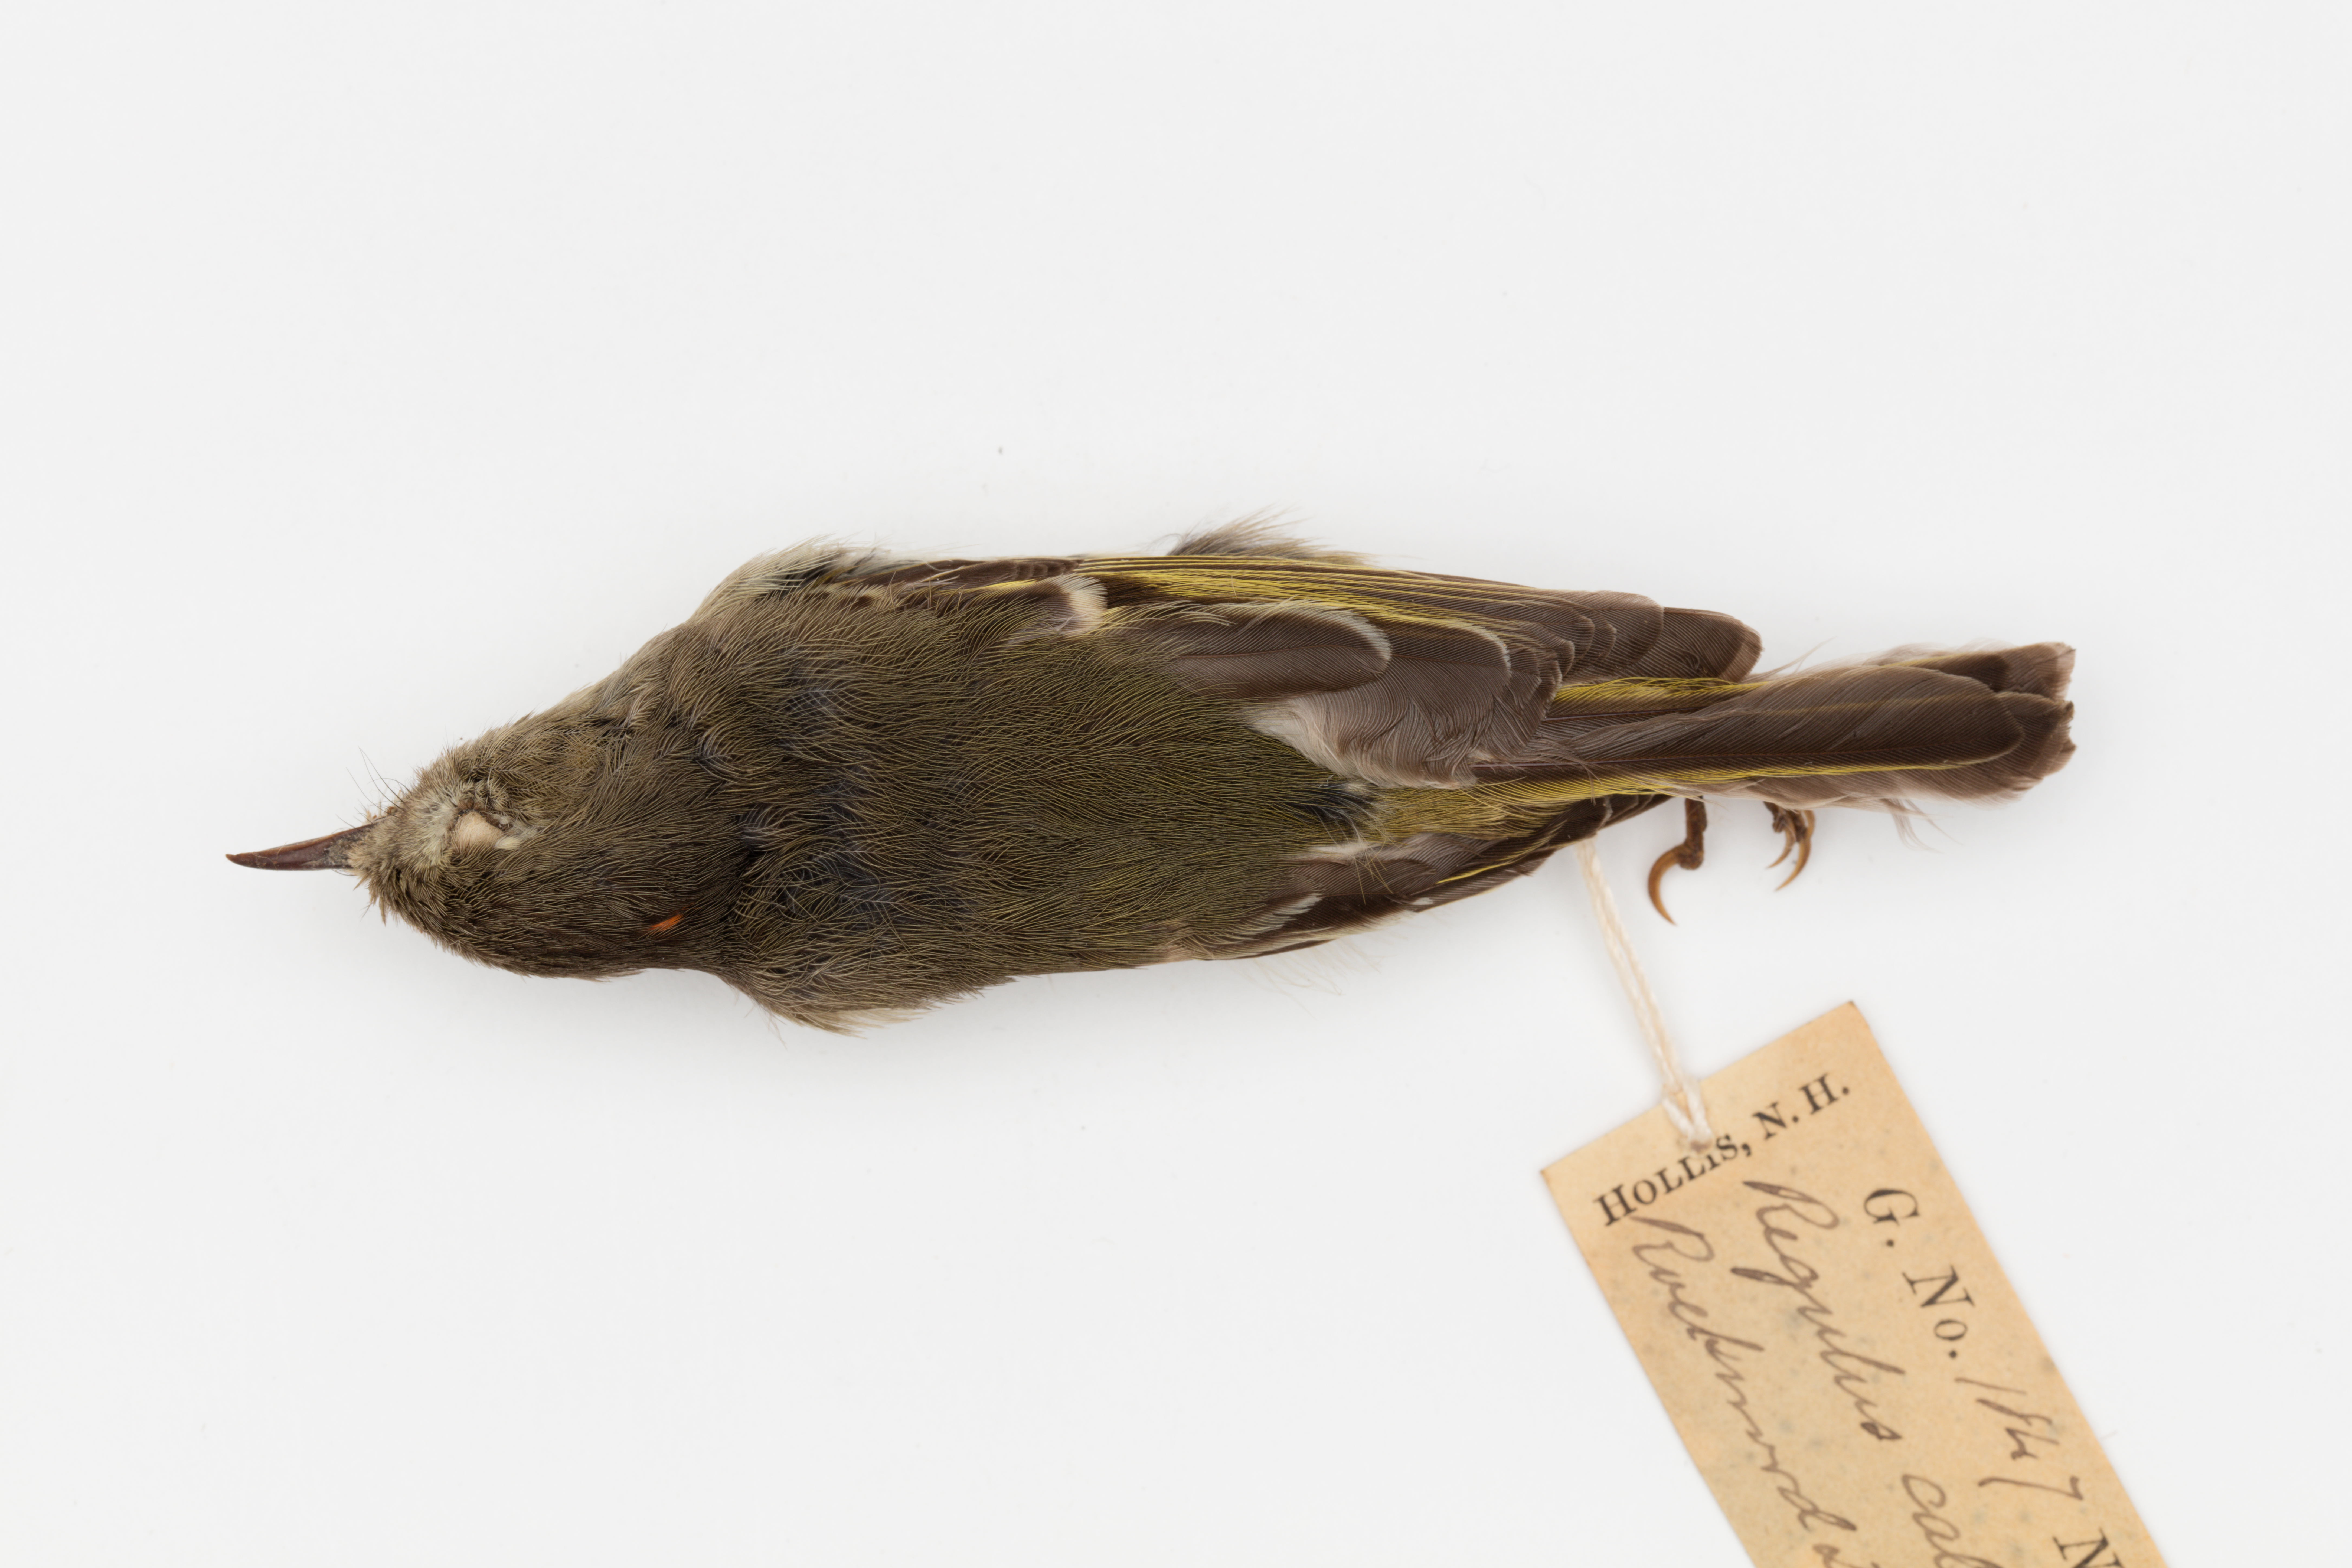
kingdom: Animalia
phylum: Chordata
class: Aves
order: Passeriformes
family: Regulidae
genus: Regulus
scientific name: Regulus calendula
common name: Ruby-crowned kinglet
